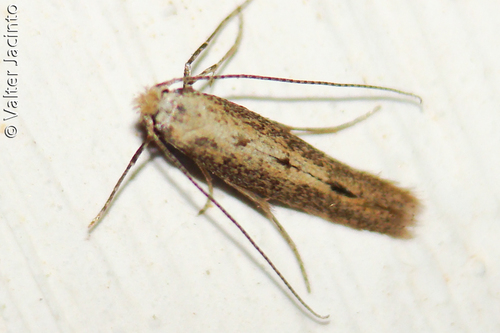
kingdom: Animalia
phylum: Arthropoda
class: Insecta
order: Lepidoptera
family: Bedelliidae
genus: Bedellia
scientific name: Bedellia
